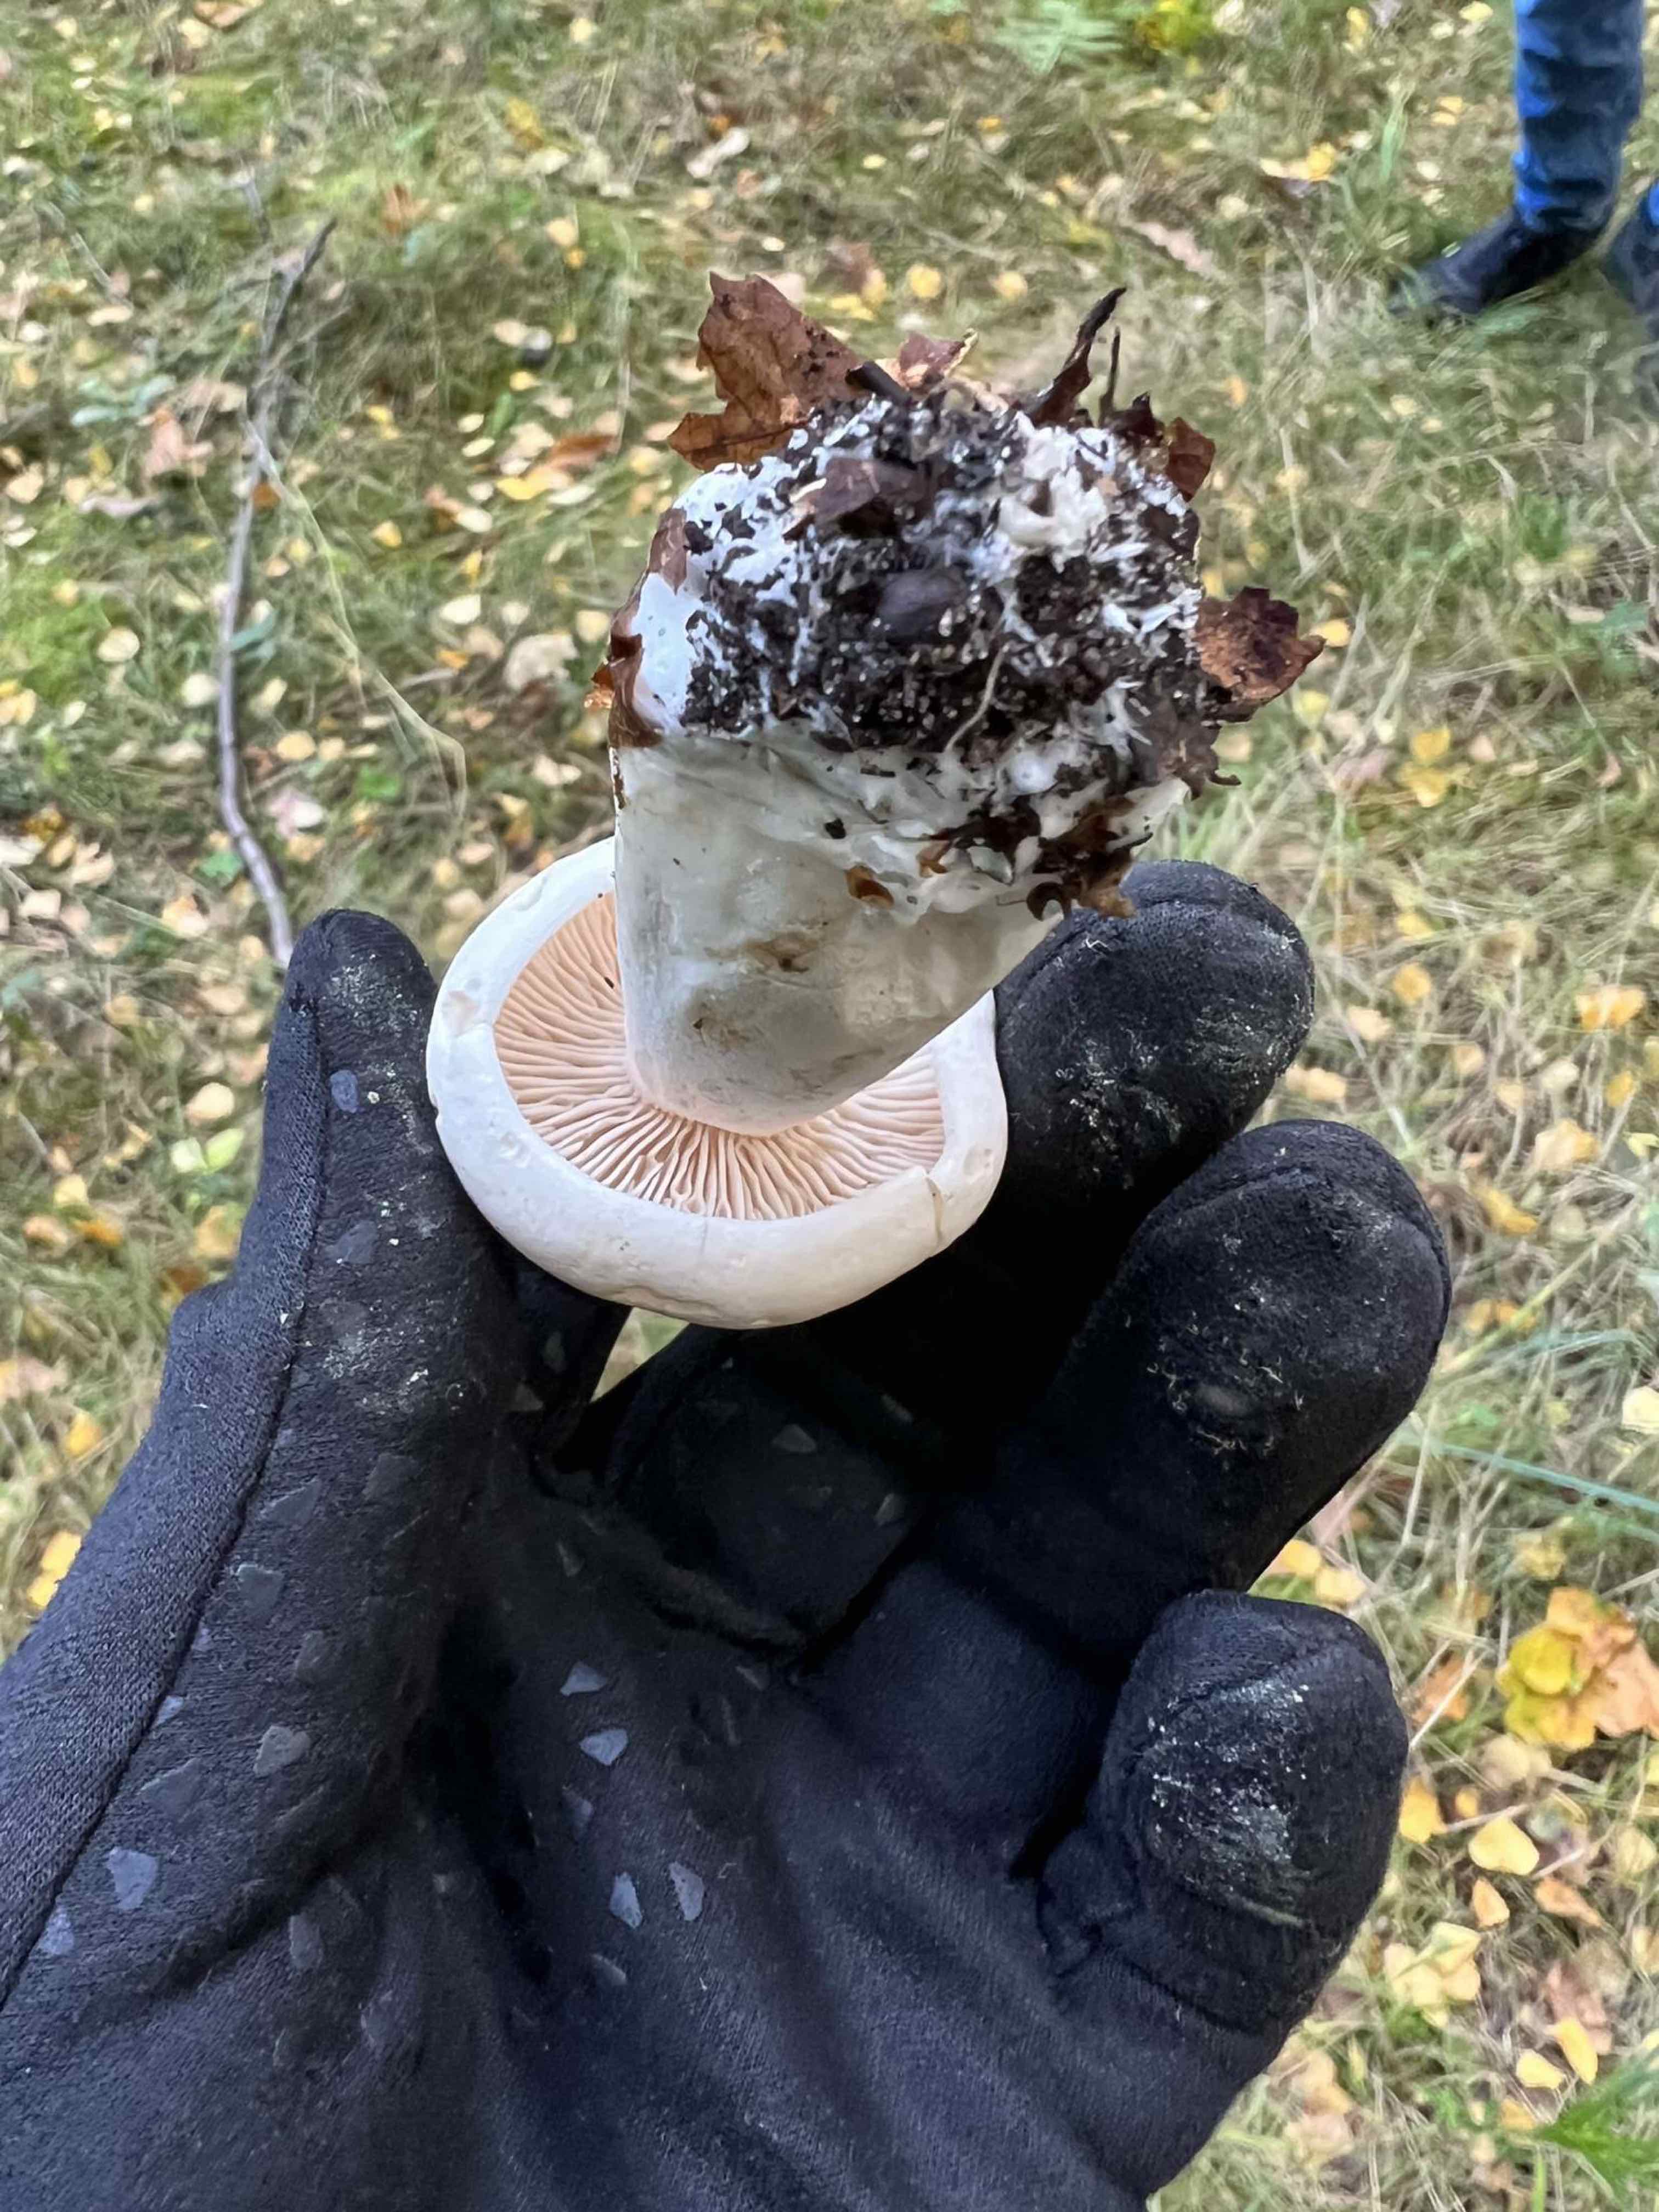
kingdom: Fungi
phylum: Basidiomycota
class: Agaricomycetes
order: Agaricales
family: Tricholomataceae
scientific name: Tricholomataceae
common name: ridderhatfamilien
